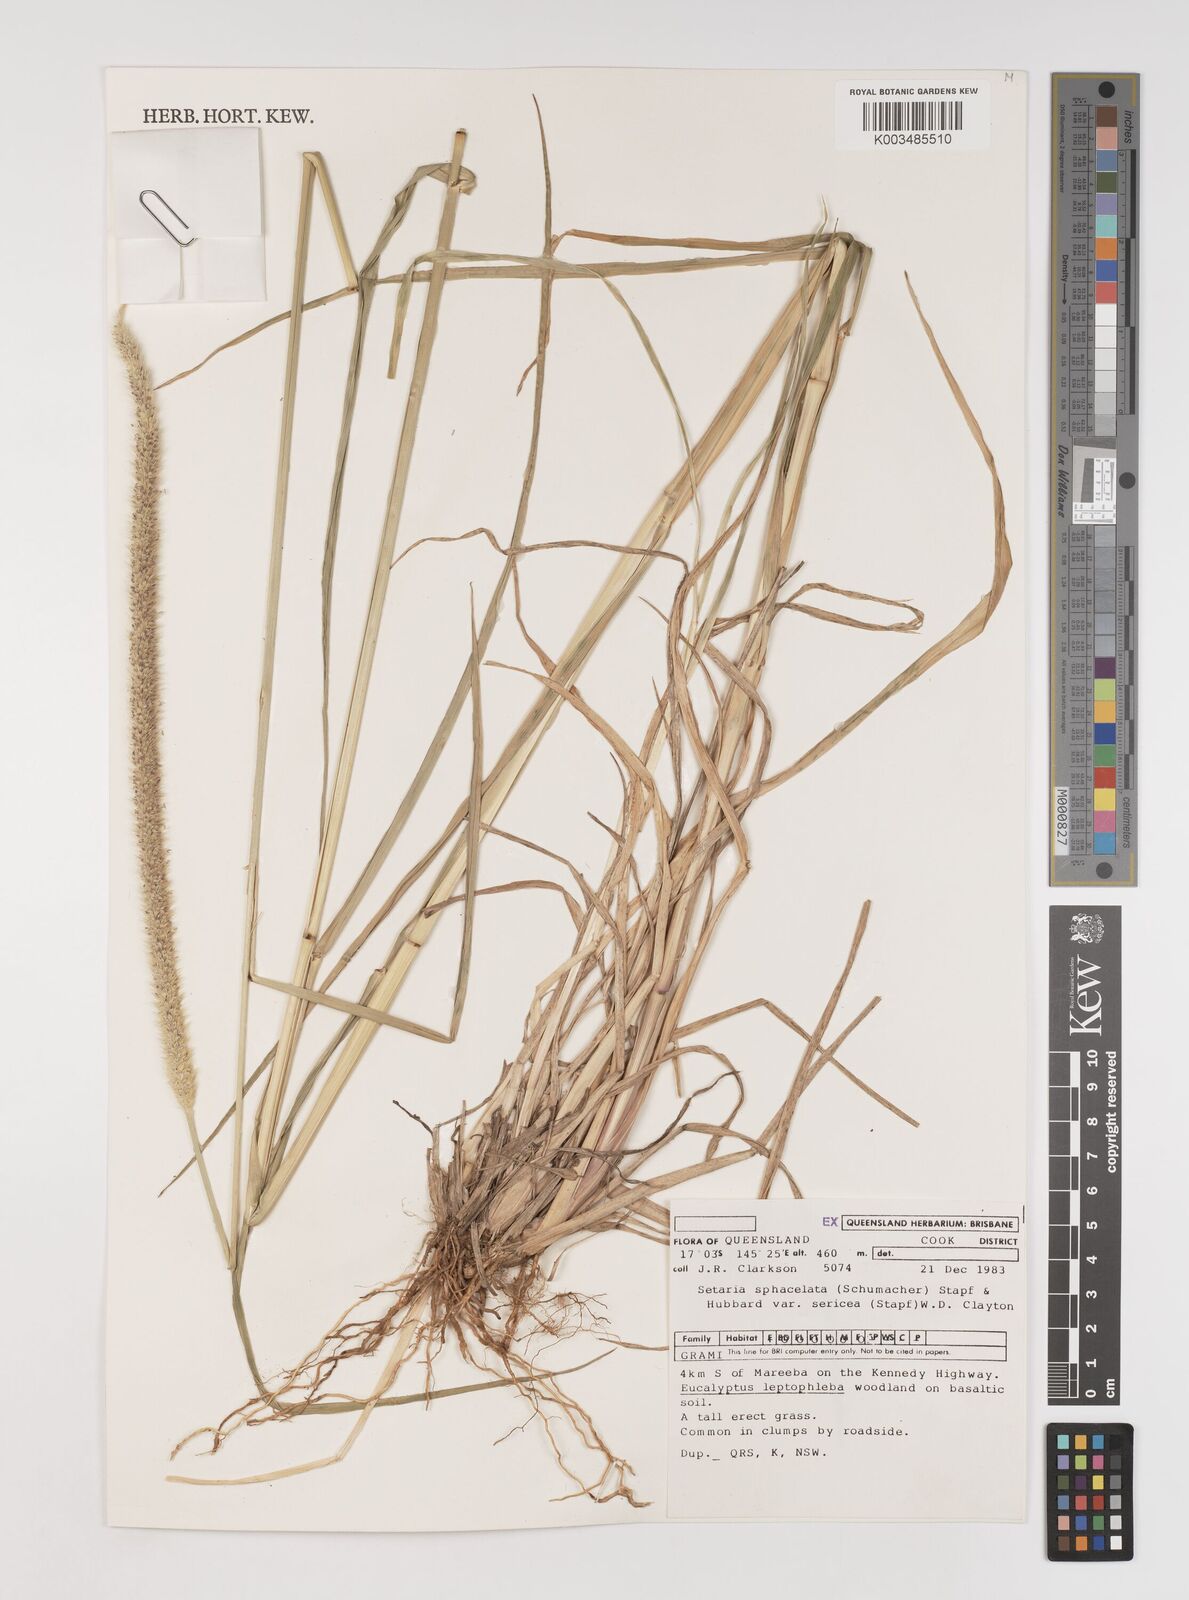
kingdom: Plantae
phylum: Tracheophyta
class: Liliopsida
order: Poales
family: Poaceae
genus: Setaria
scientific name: Setaria sphacelata
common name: African bristlegrass
